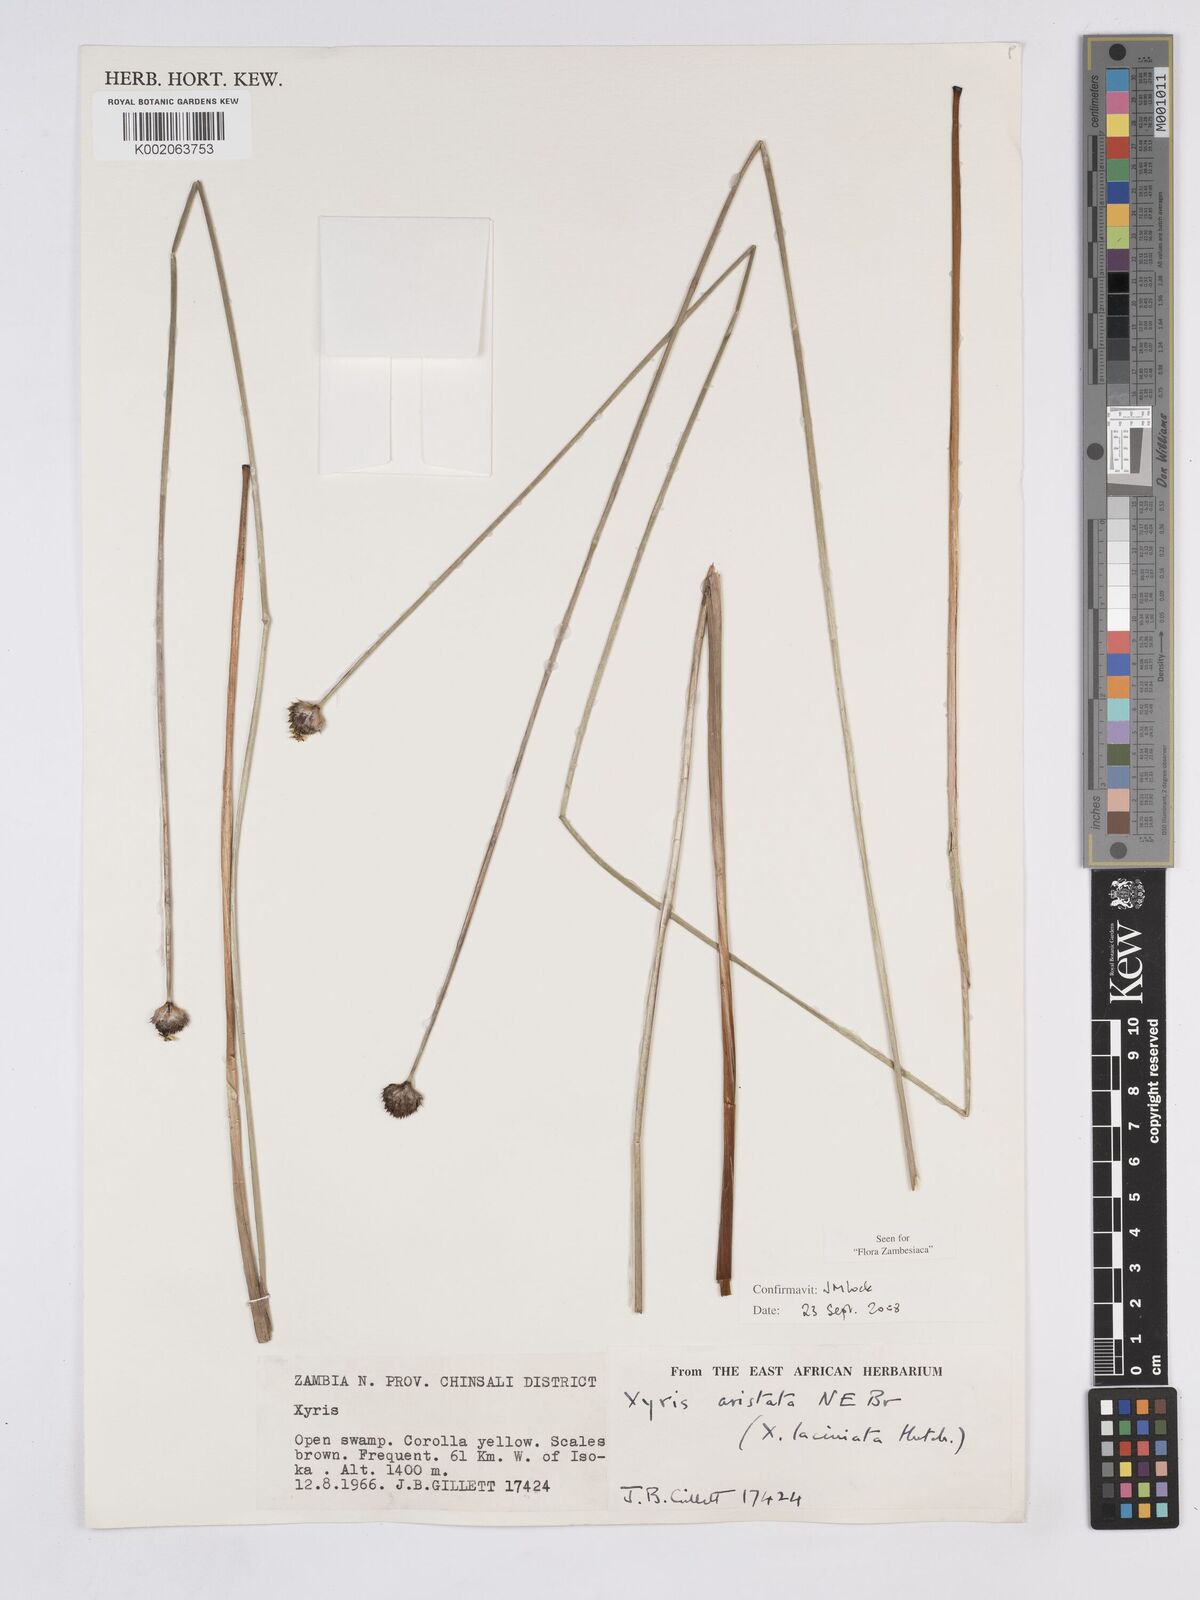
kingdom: Plantae
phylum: Tracheophyta
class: Liliopsida
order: Poales
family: Xyridaceae
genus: Xyris
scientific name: Xyris aristata
